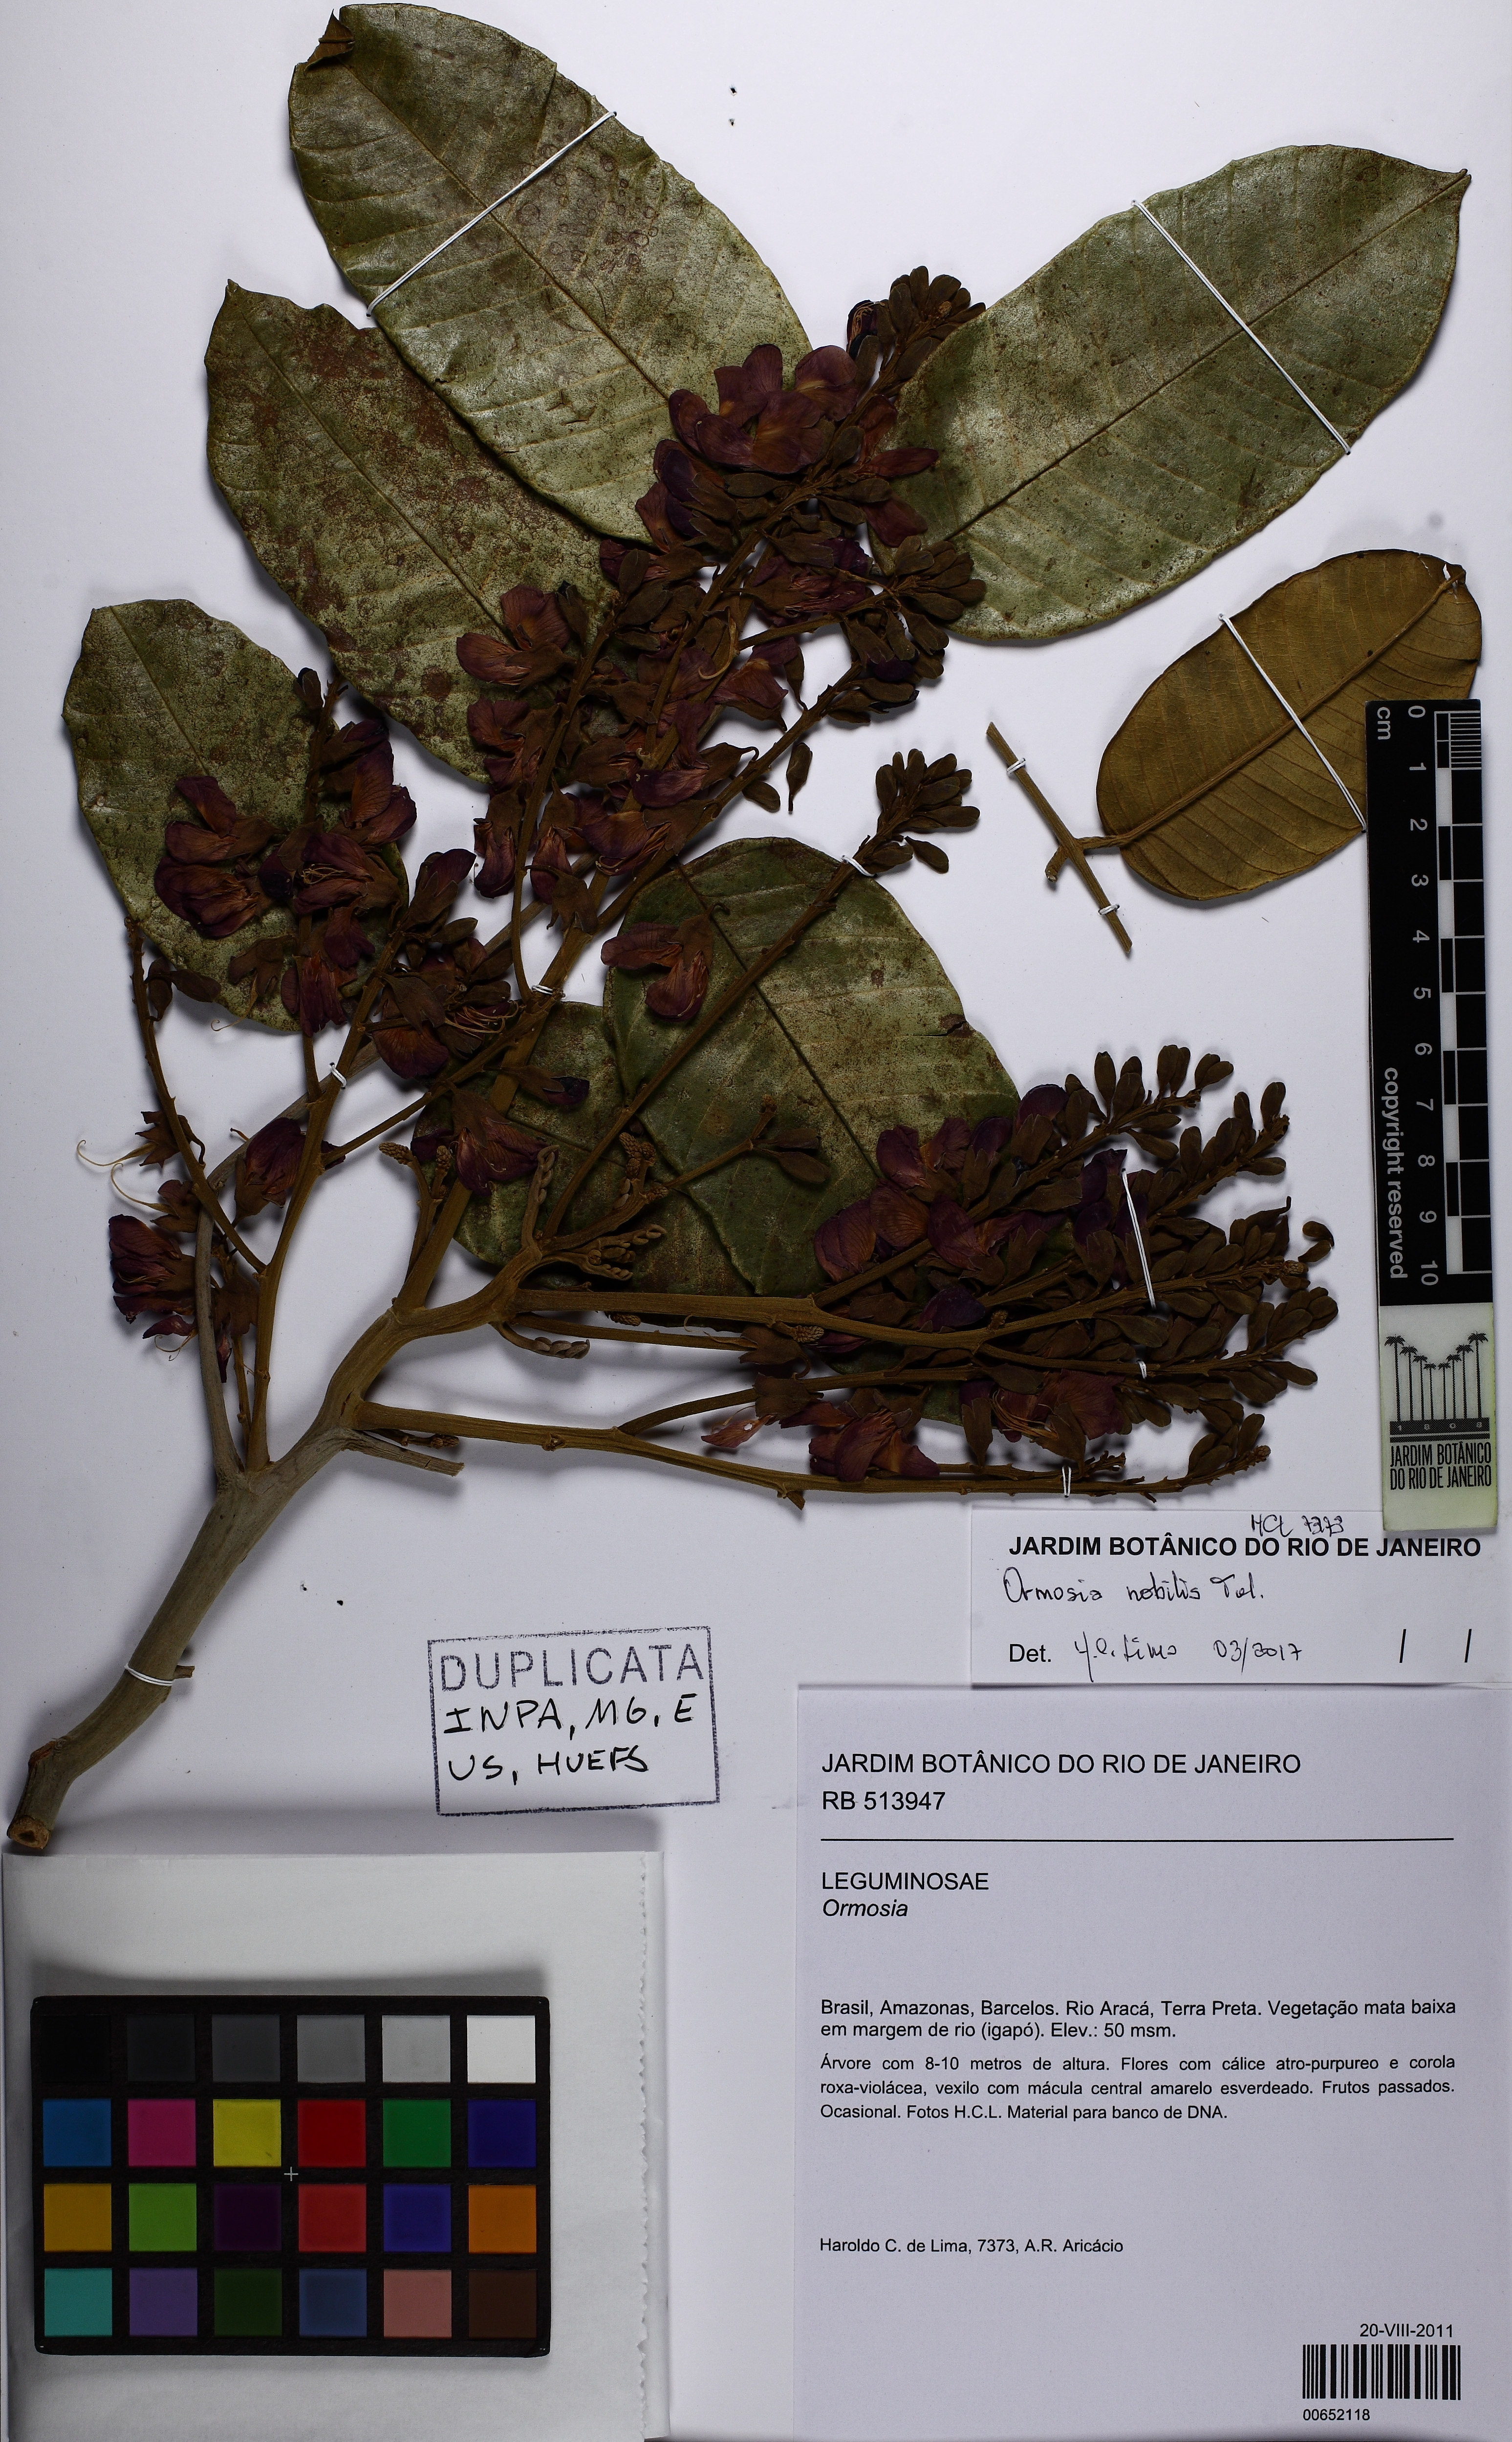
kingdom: Plantae
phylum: Tracheophyta
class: Magnoliopsida
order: Fabales
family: Fabaceae
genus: Ormosia
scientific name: Ormosia nobilis
